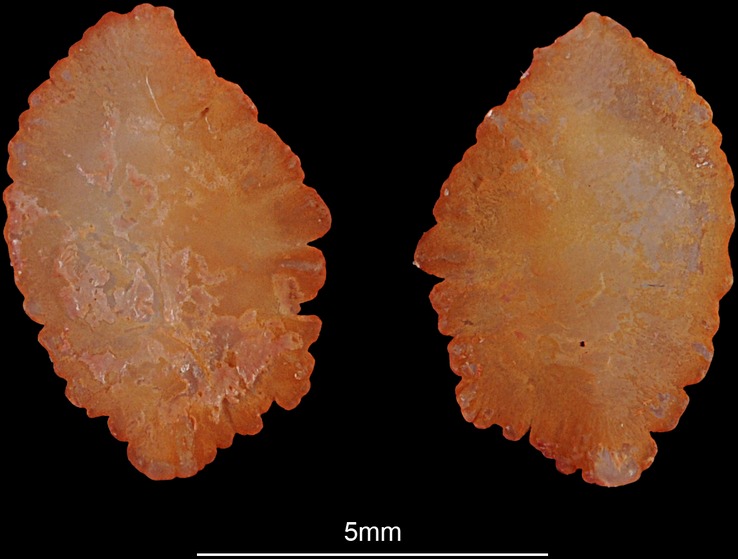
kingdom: Animalia
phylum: Chordata
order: Perciformes
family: Sparidae
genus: Argyrops
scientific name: Argyrops filamentosus
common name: Soldier bream
